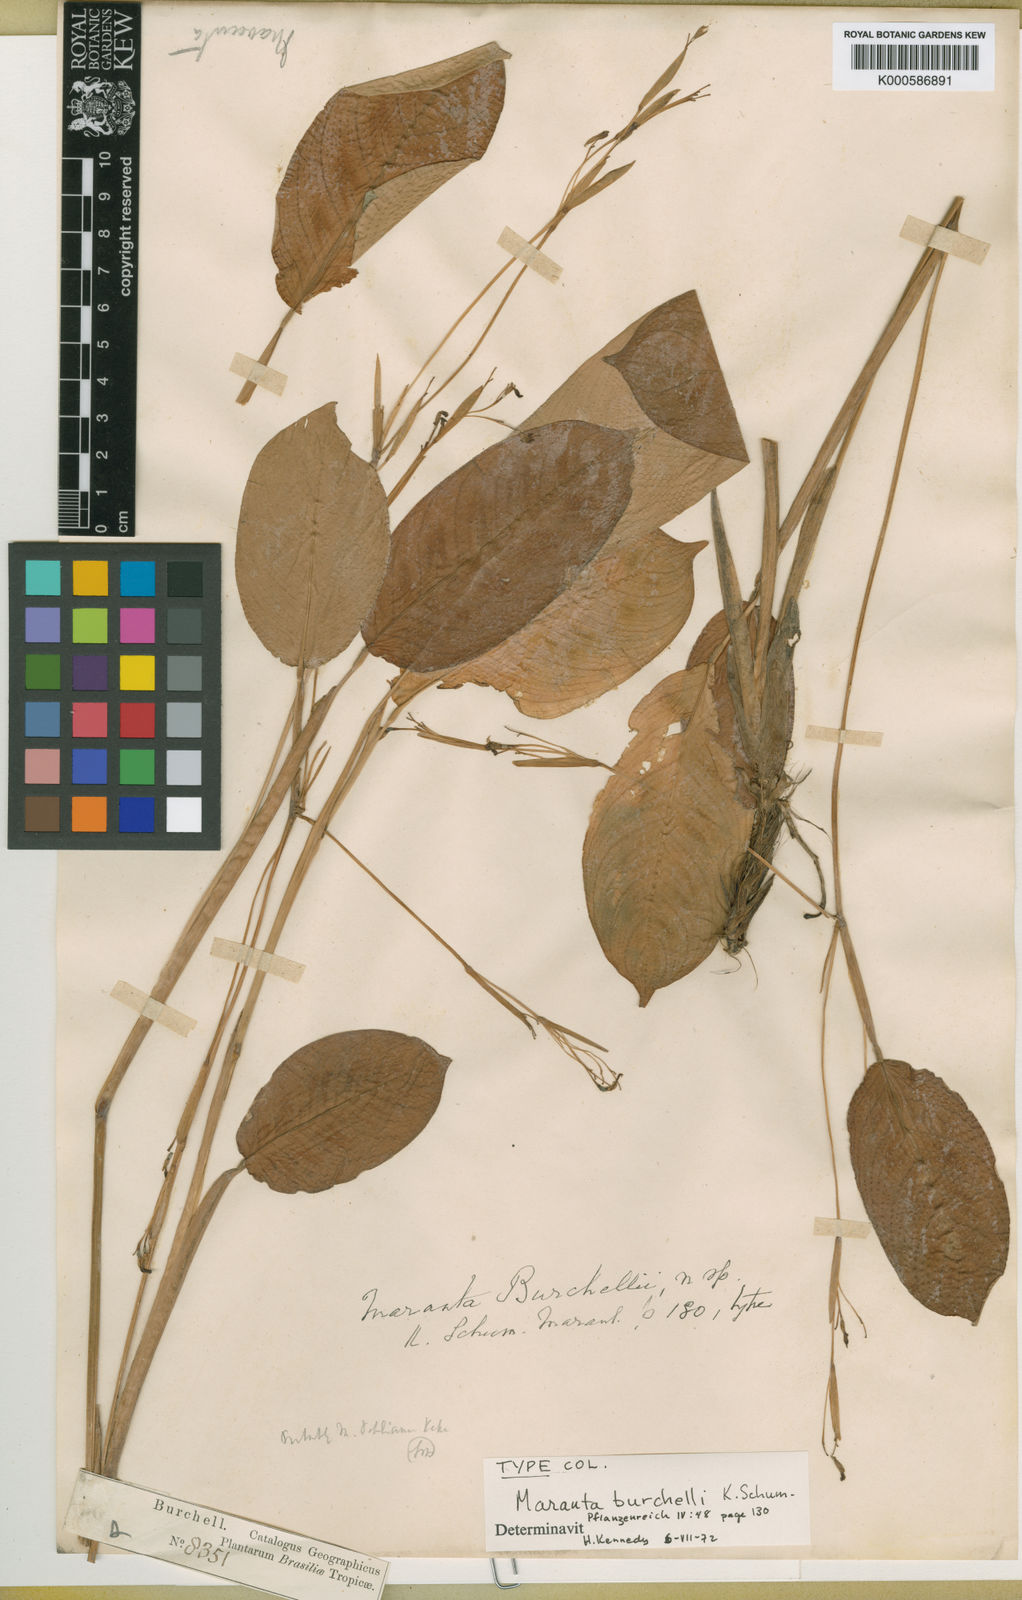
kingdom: Plantae
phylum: Tracheophyta
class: Liliopsida
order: Zingiberales
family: Marantaceae
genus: Maranta
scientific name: Maranta burchellii
